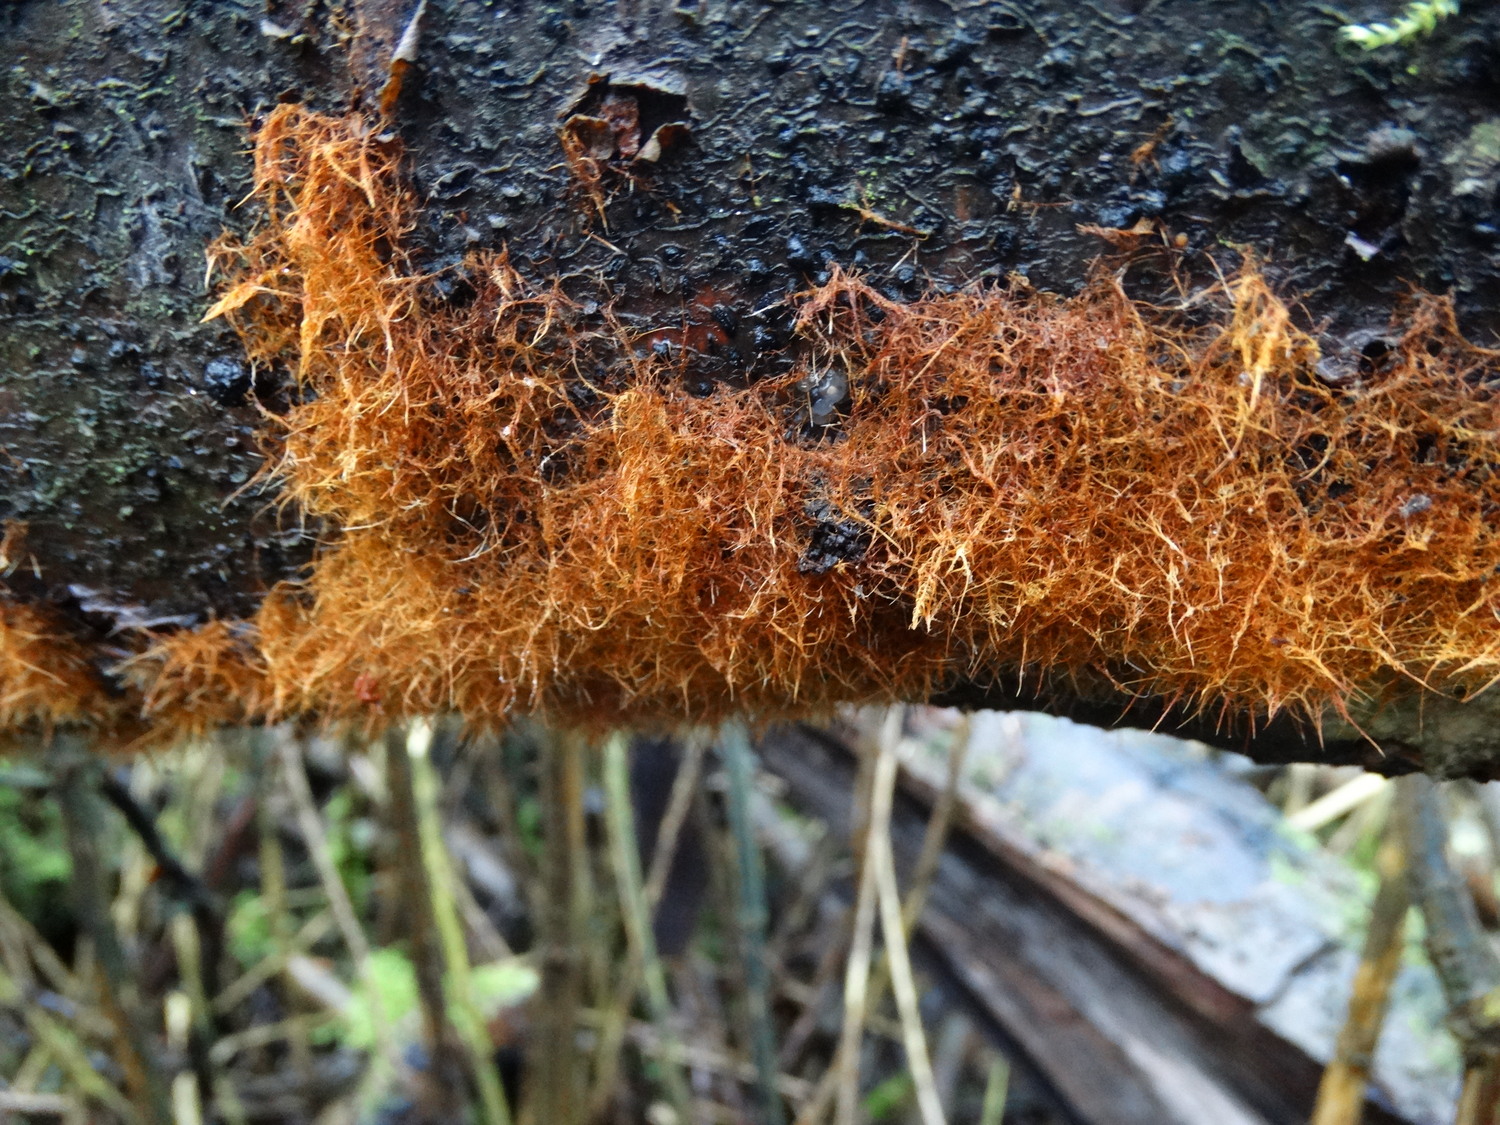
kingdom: Fungi
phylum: Basidiomycota
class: Agaricomycetes
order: Agaricales
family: Psathyrellaceae
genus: Ozonium
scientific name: Ozonium
